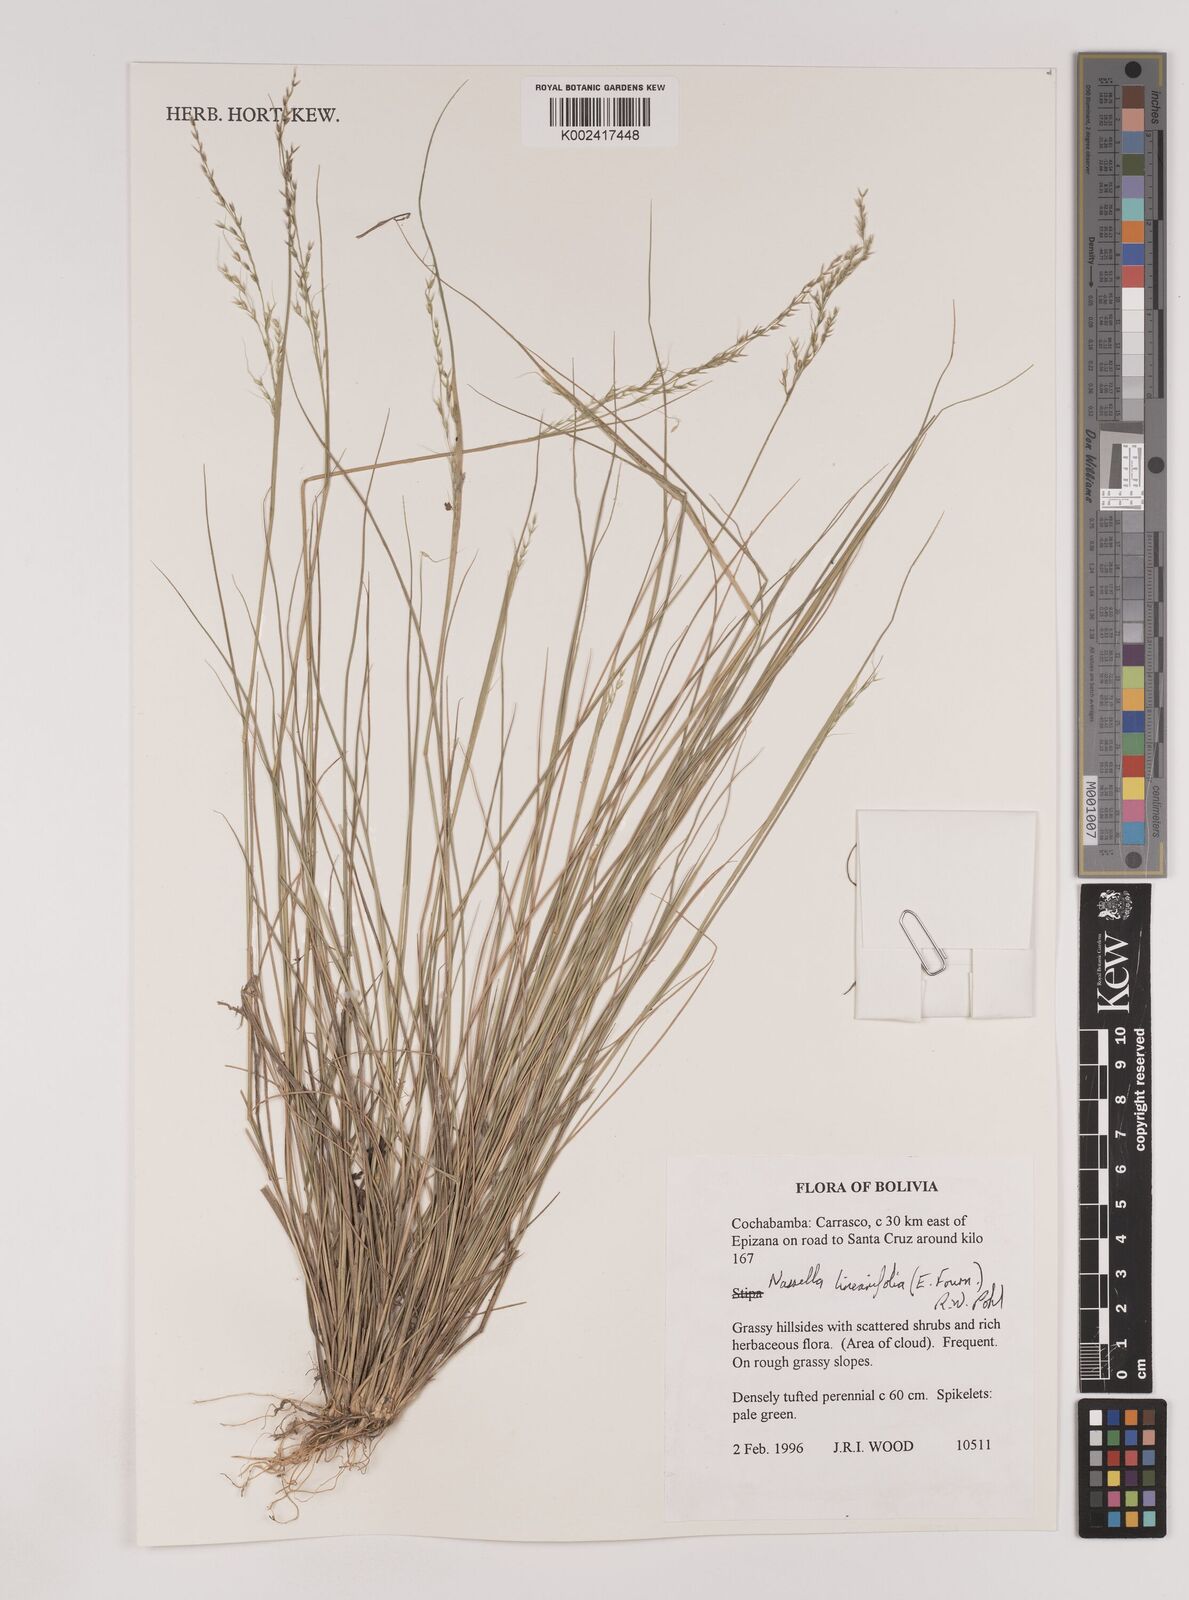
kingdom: Plantae
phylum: Tracheophyta
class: Liliopsida
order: Poales
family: Poaceae
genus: Nassella
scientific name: Nassella caespitosa
